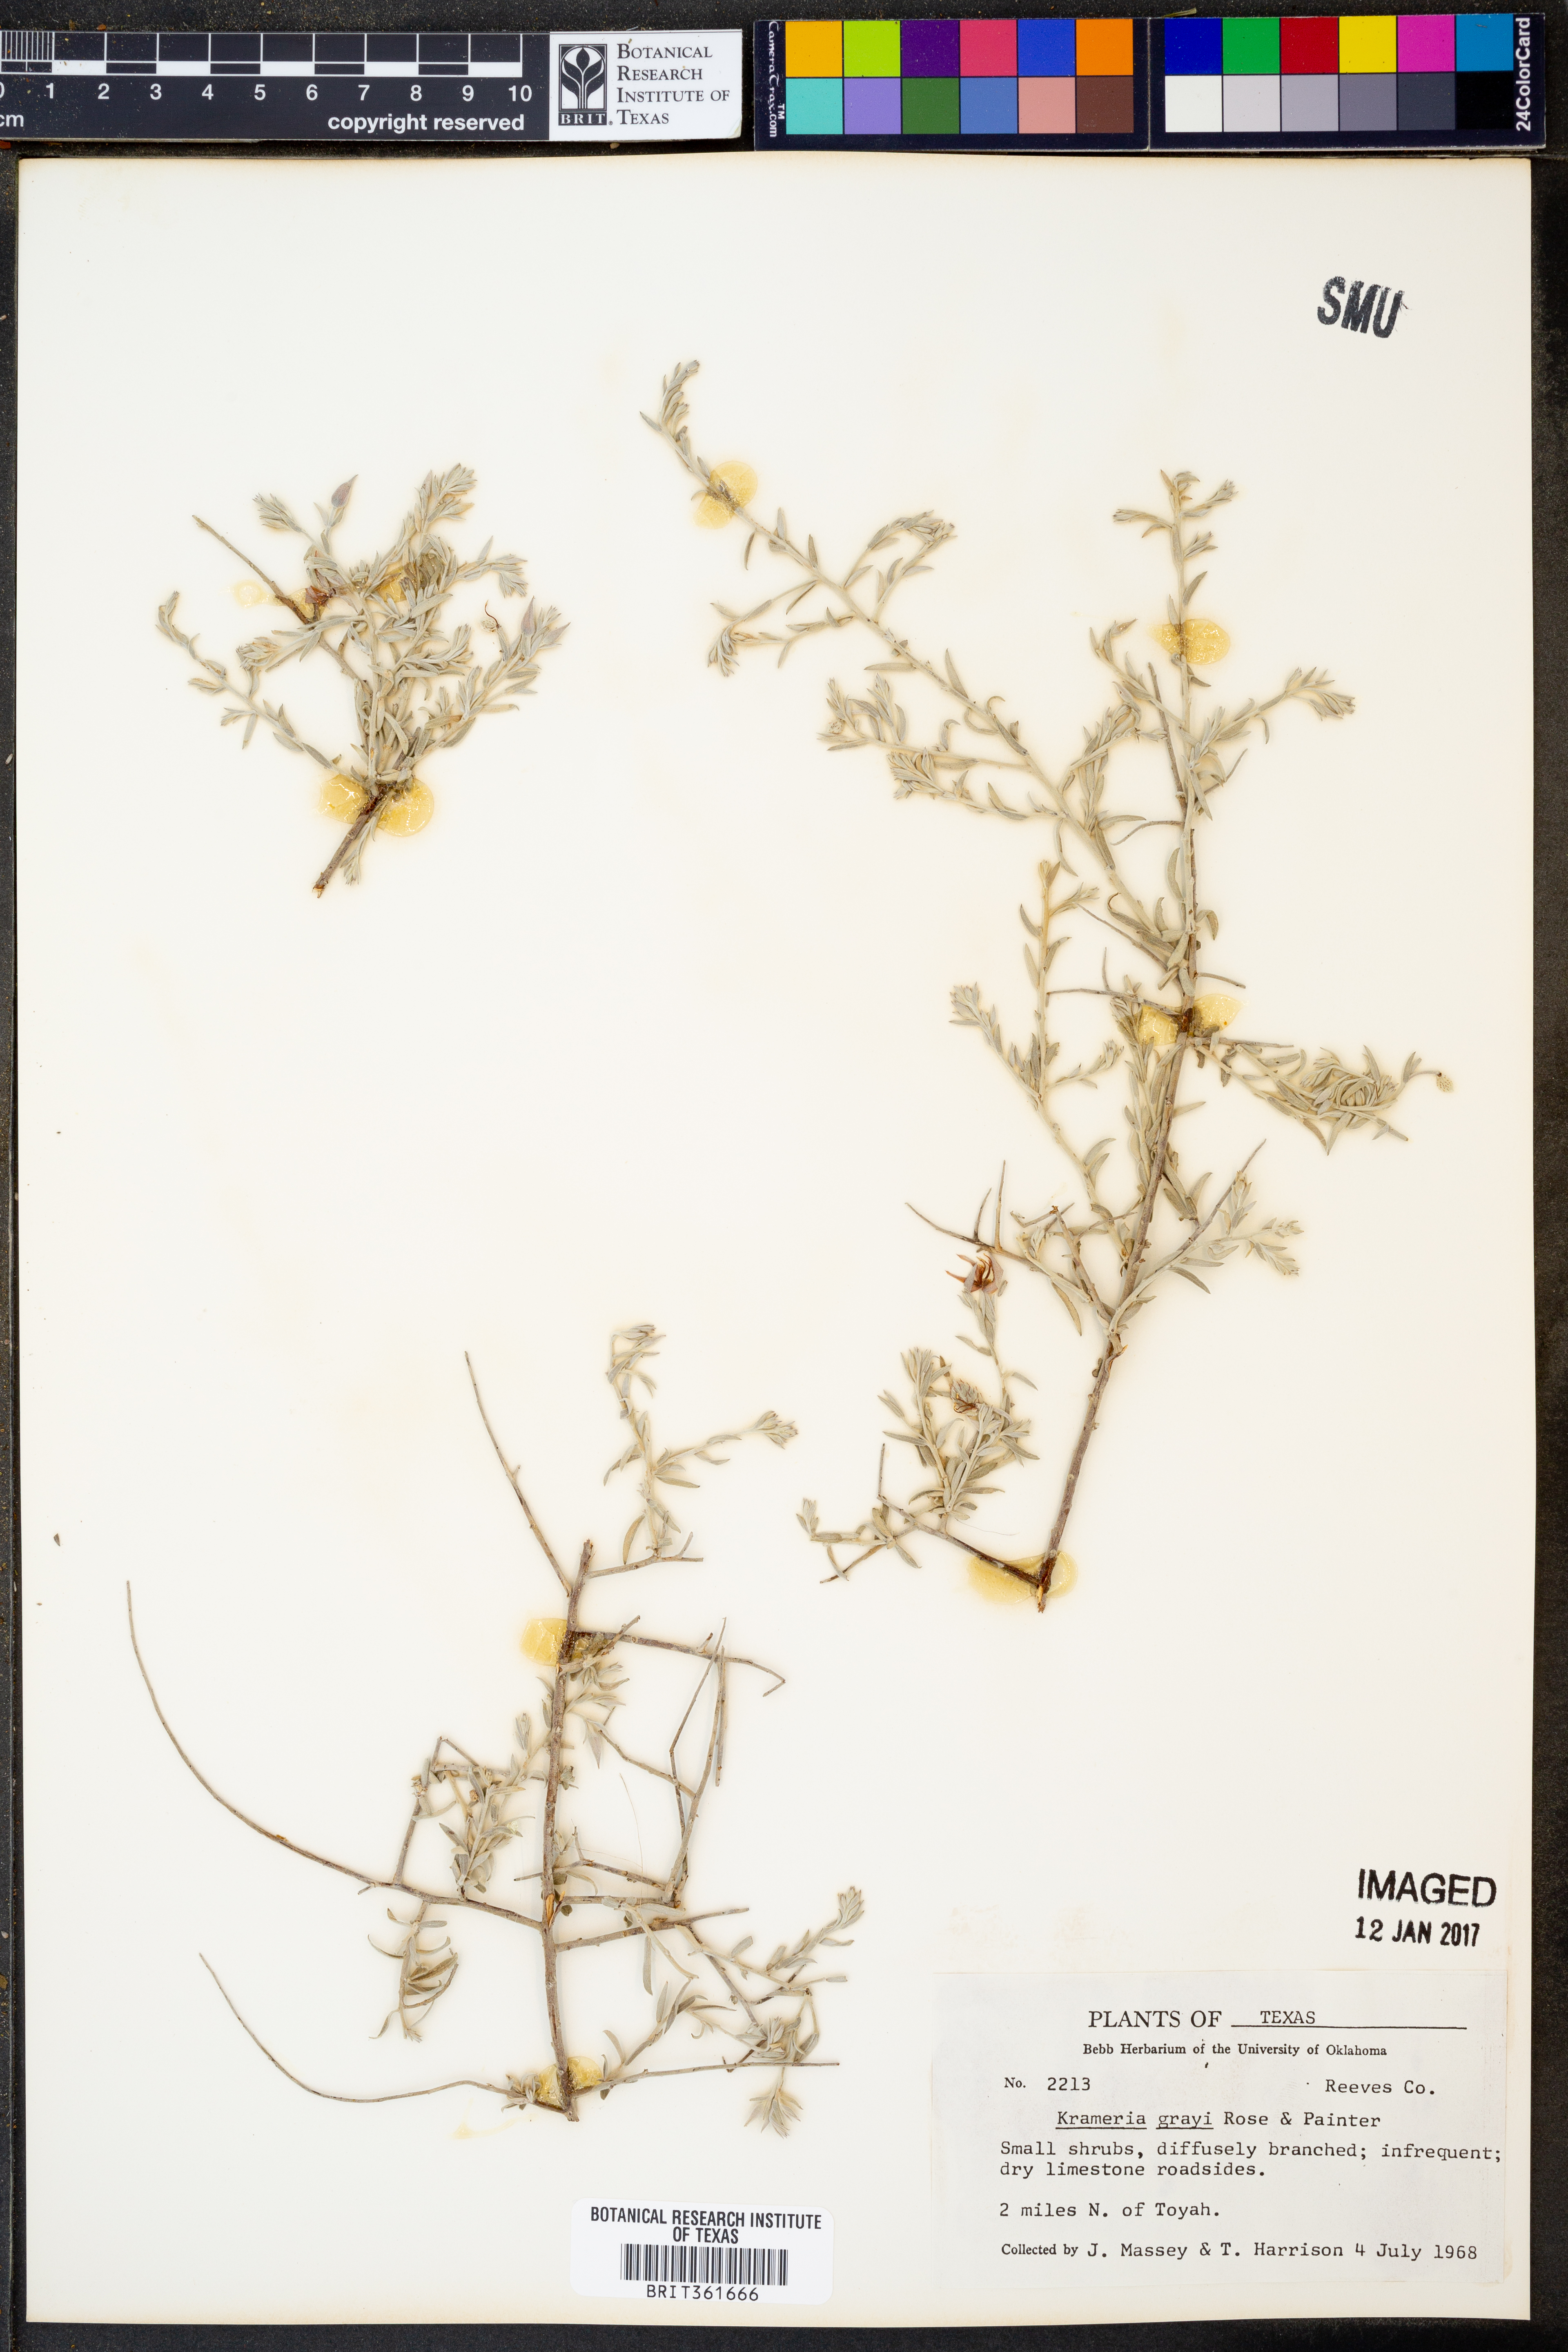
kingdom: Plantae
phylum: Tracheophyta
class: Magnoliopsida
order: Zygophyllales
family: Krameriaceae
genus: Krameria
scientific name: Krameria bicolor
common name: White ratany
